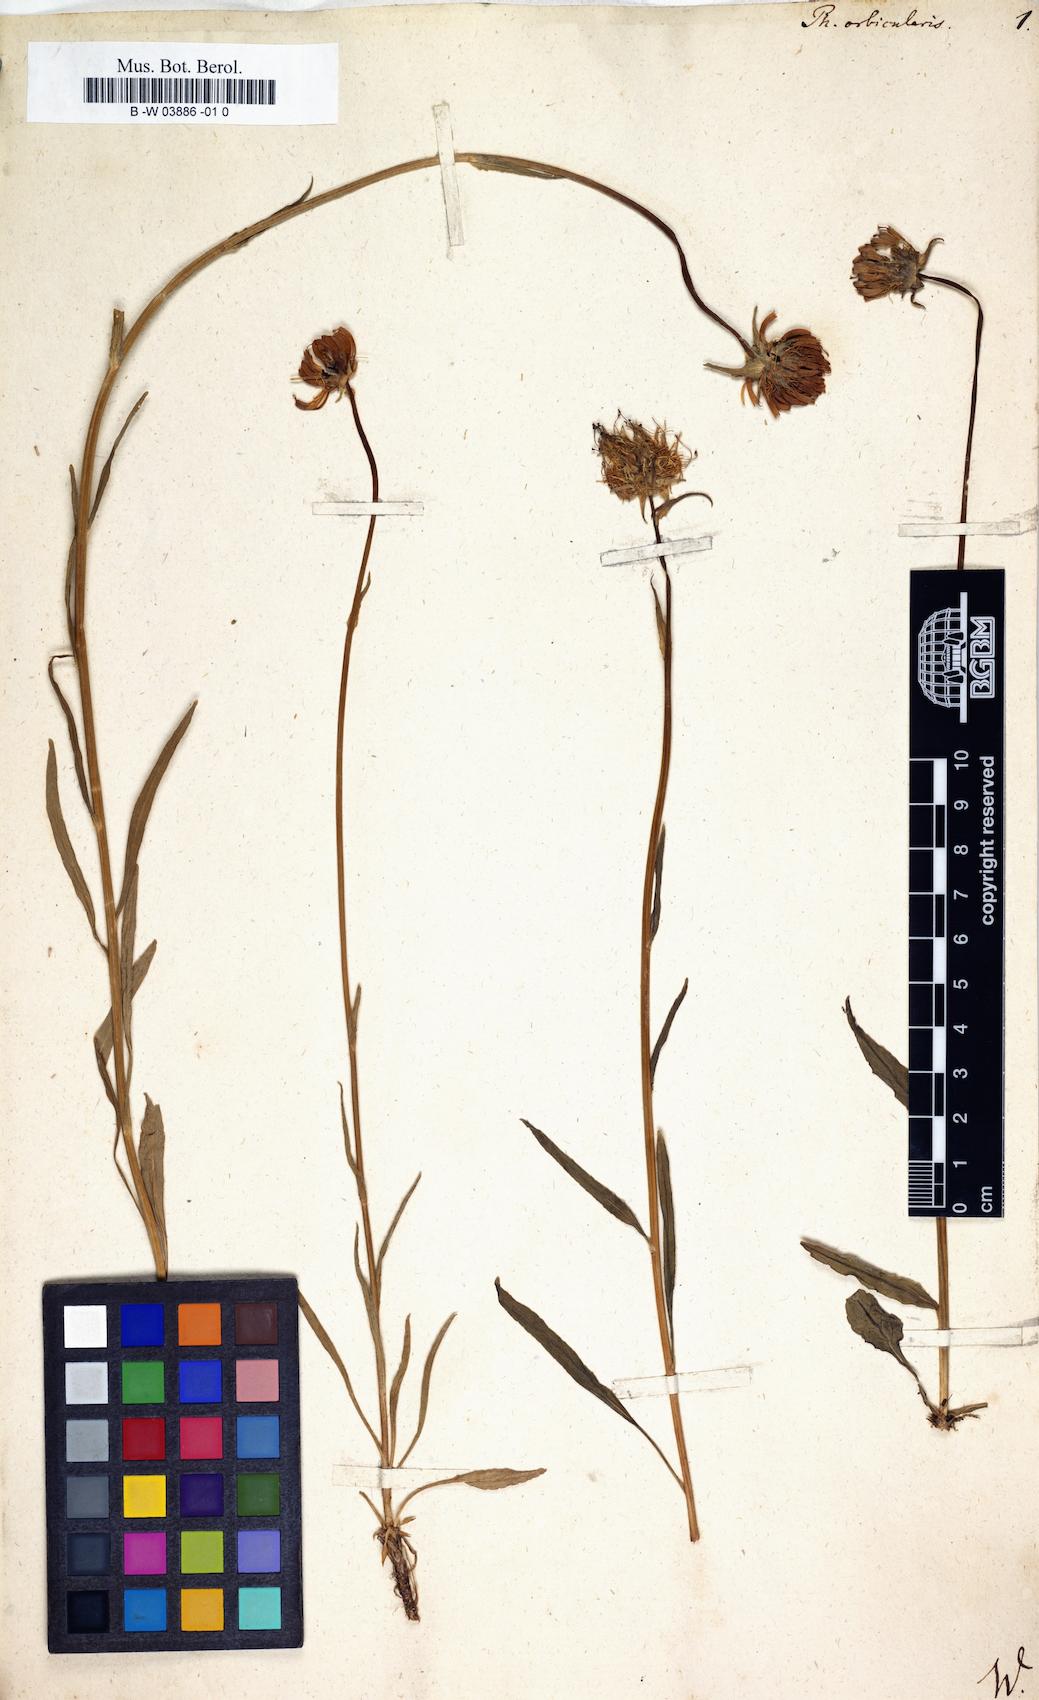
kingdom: Plantae
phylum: Tracheophyta
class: Magnoliopsida
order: Asterales
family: Campanulaceae
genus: Phyteuma
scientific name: Phyteuma orbiculare
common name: Round-headed rampion
